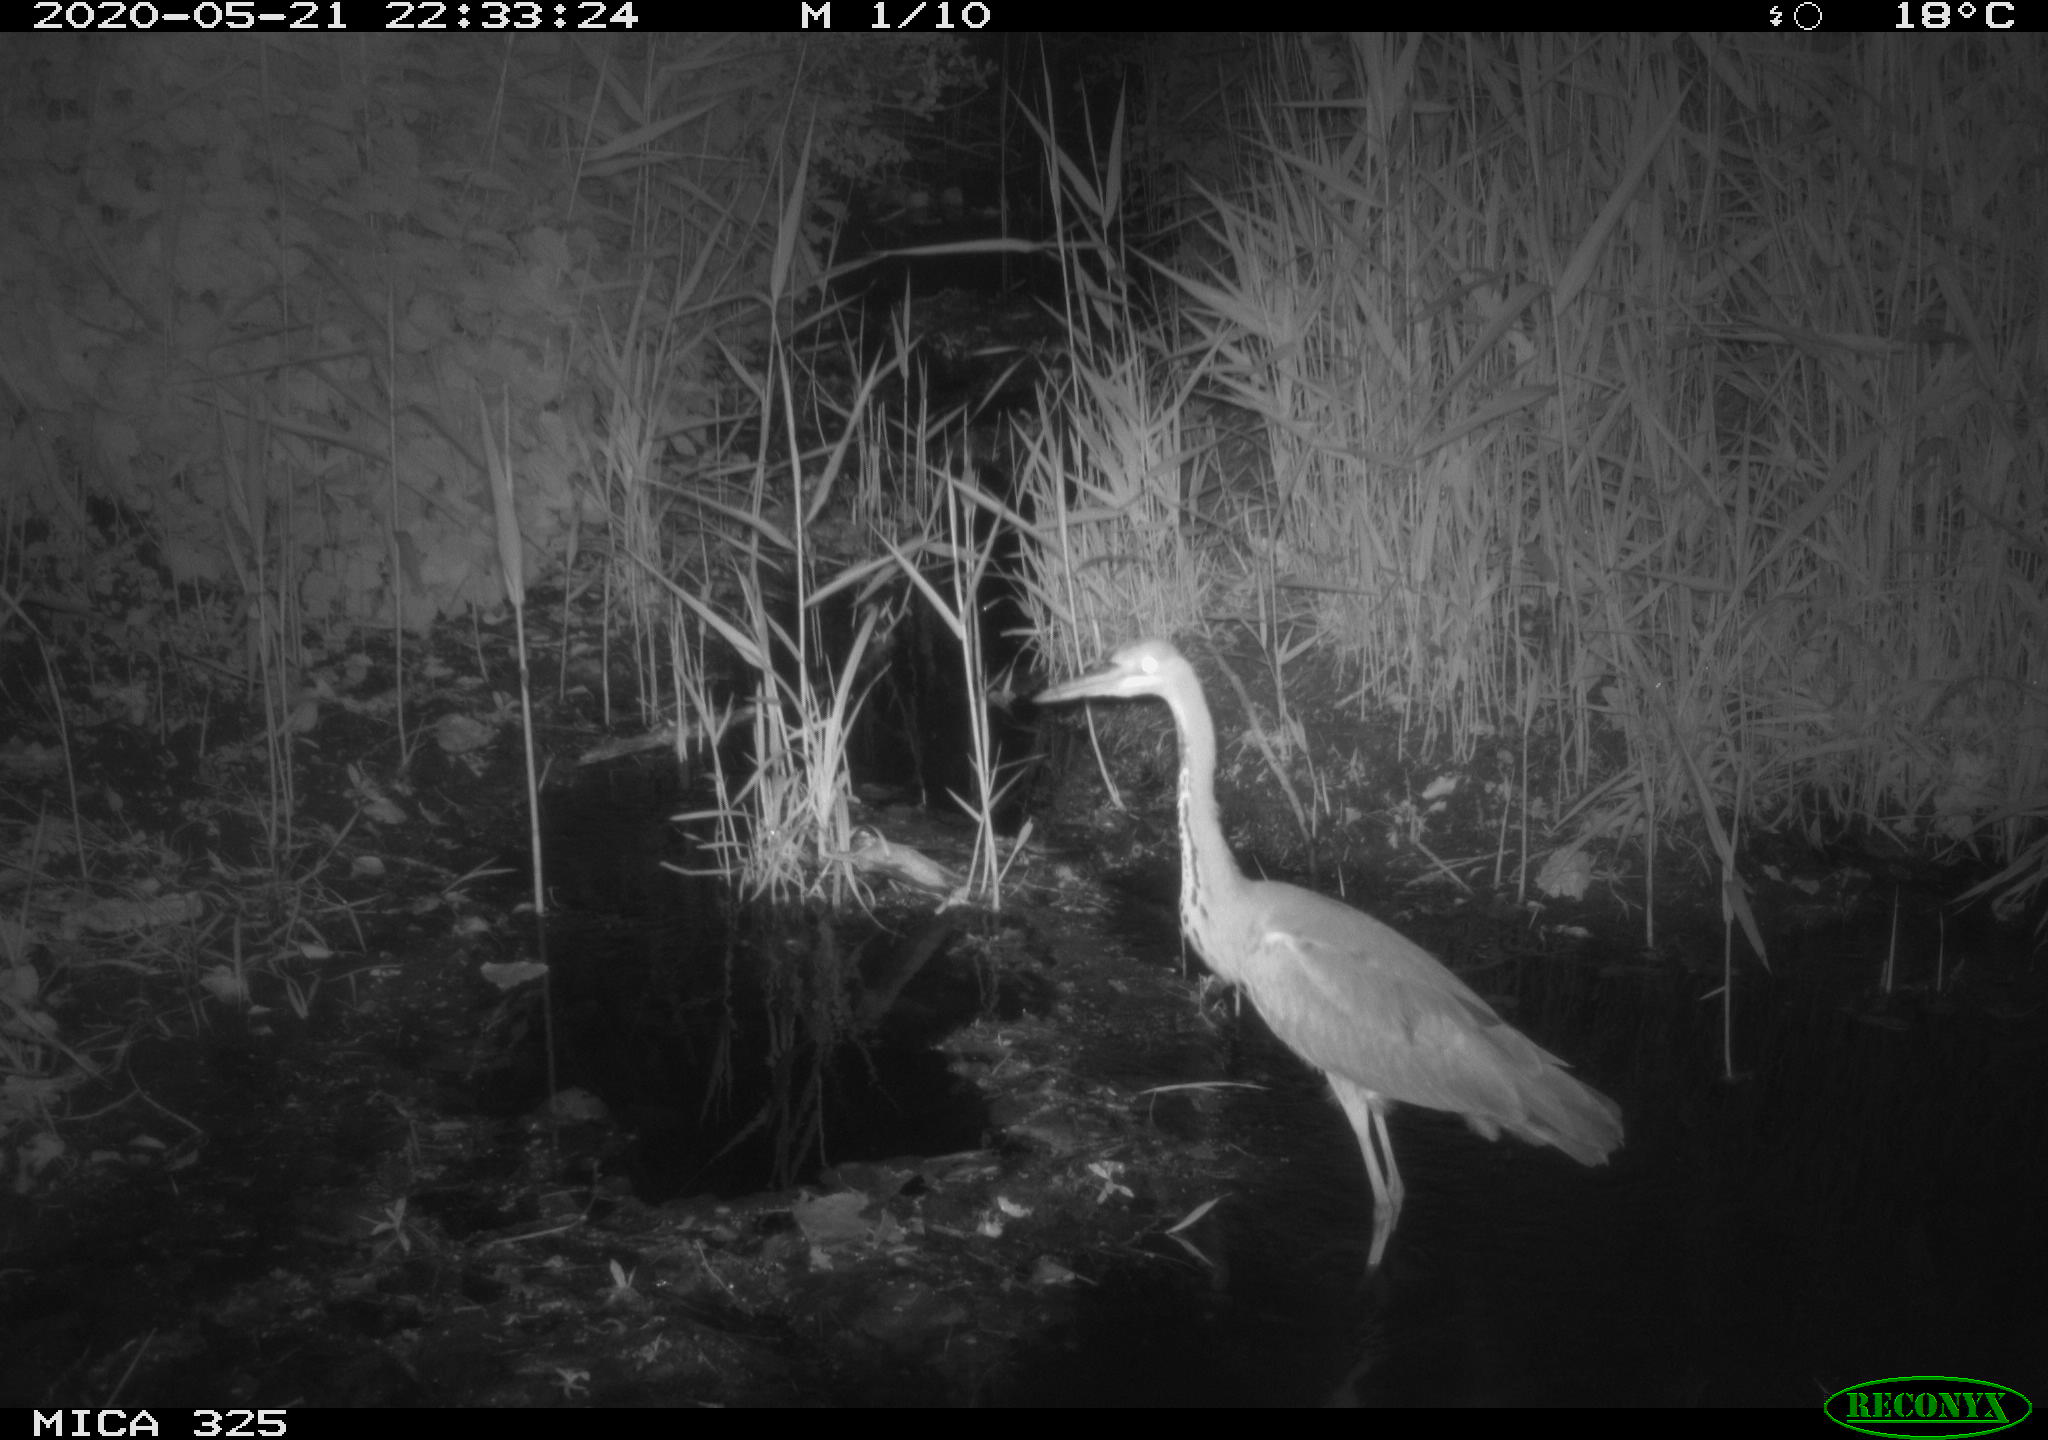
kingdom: Animalia
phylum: Chordata
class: Aves
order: Pelecaniformes
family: Ardeidae
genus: Ardea
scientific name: Ardea cinerea
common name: Grey heron
